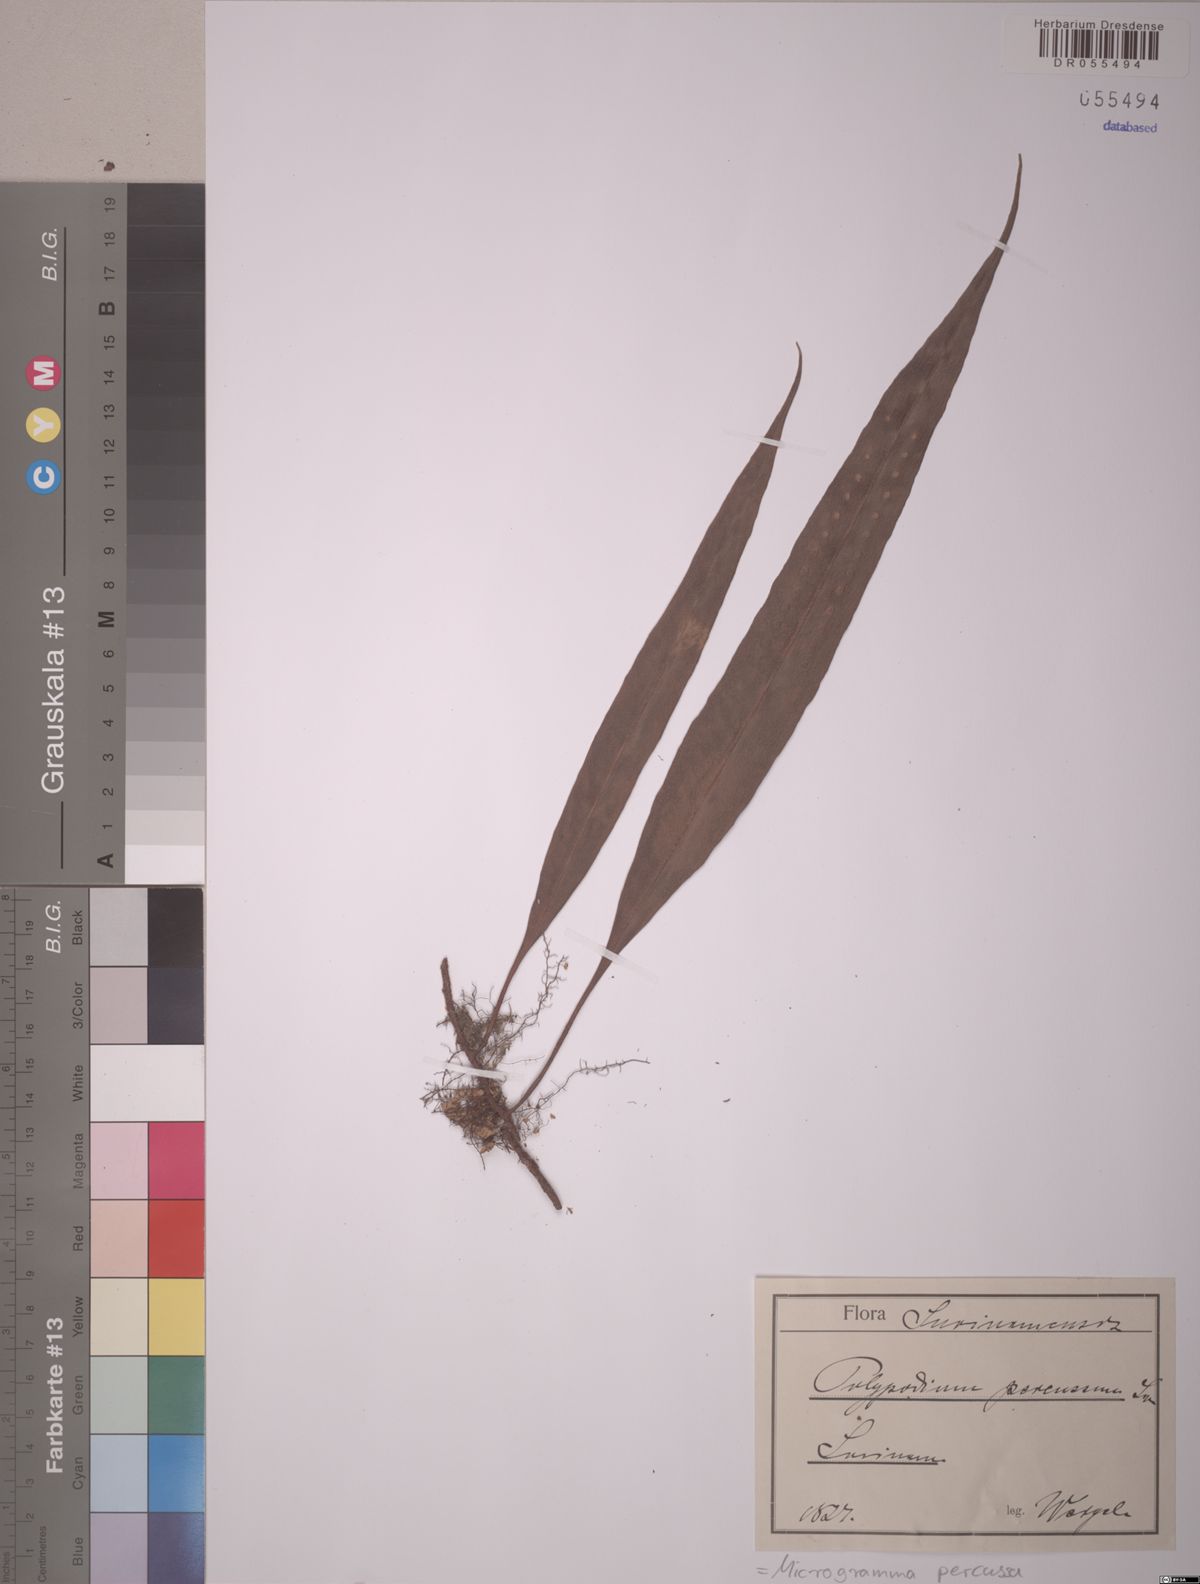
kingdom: Plantae
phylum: Tracheophyta
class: Polypodiopsida
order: Polypodiales
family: Polypodiaceae
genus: Microgramma
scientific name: Microgramma percussa
